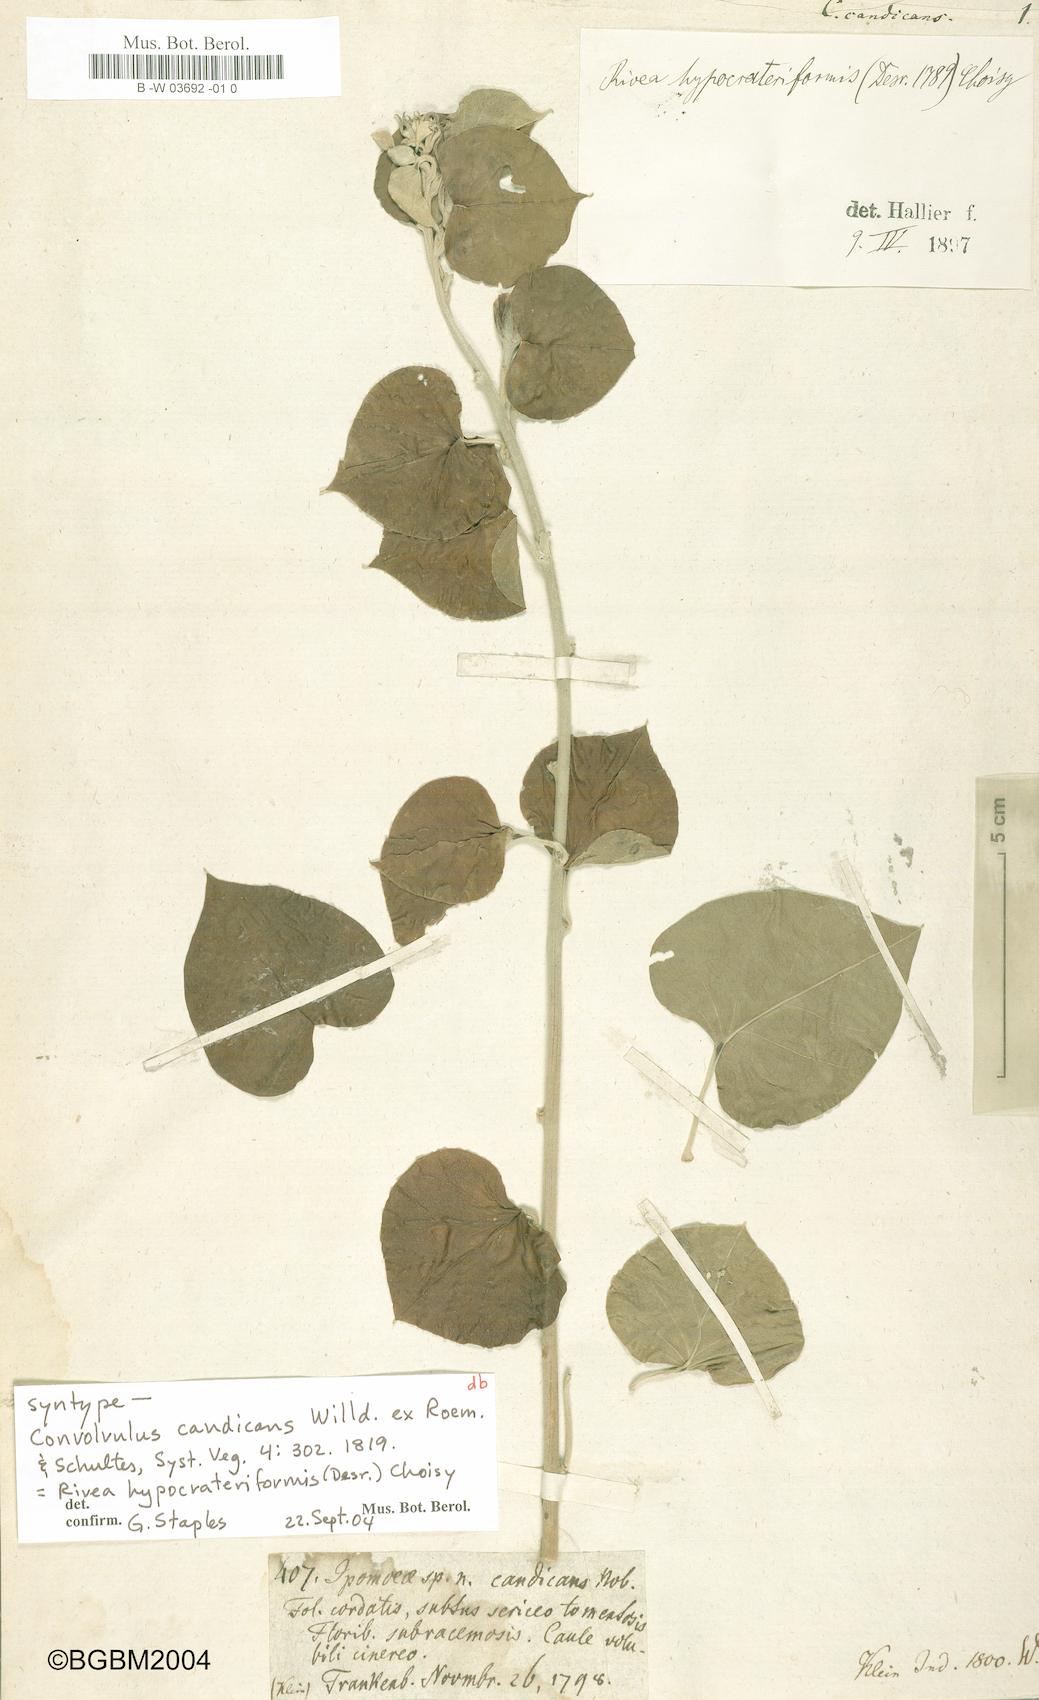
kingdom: Plantae
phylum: Tracheophyta
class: Magnoliopsida
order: Solanales
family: Convolvulaceae
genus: Convolvulus
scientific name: Convolvulus candicans
